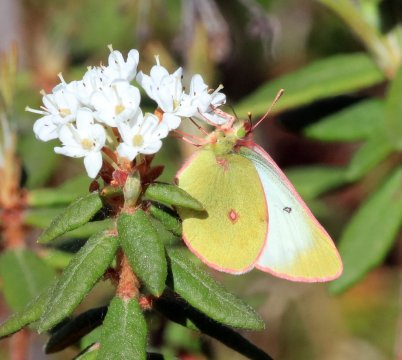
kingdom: Animalia
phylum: Arthropoda
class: Insecta
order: Lepidoptera
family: Pieridae
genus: Colias
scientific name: Colias
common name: Clouded Yellows
